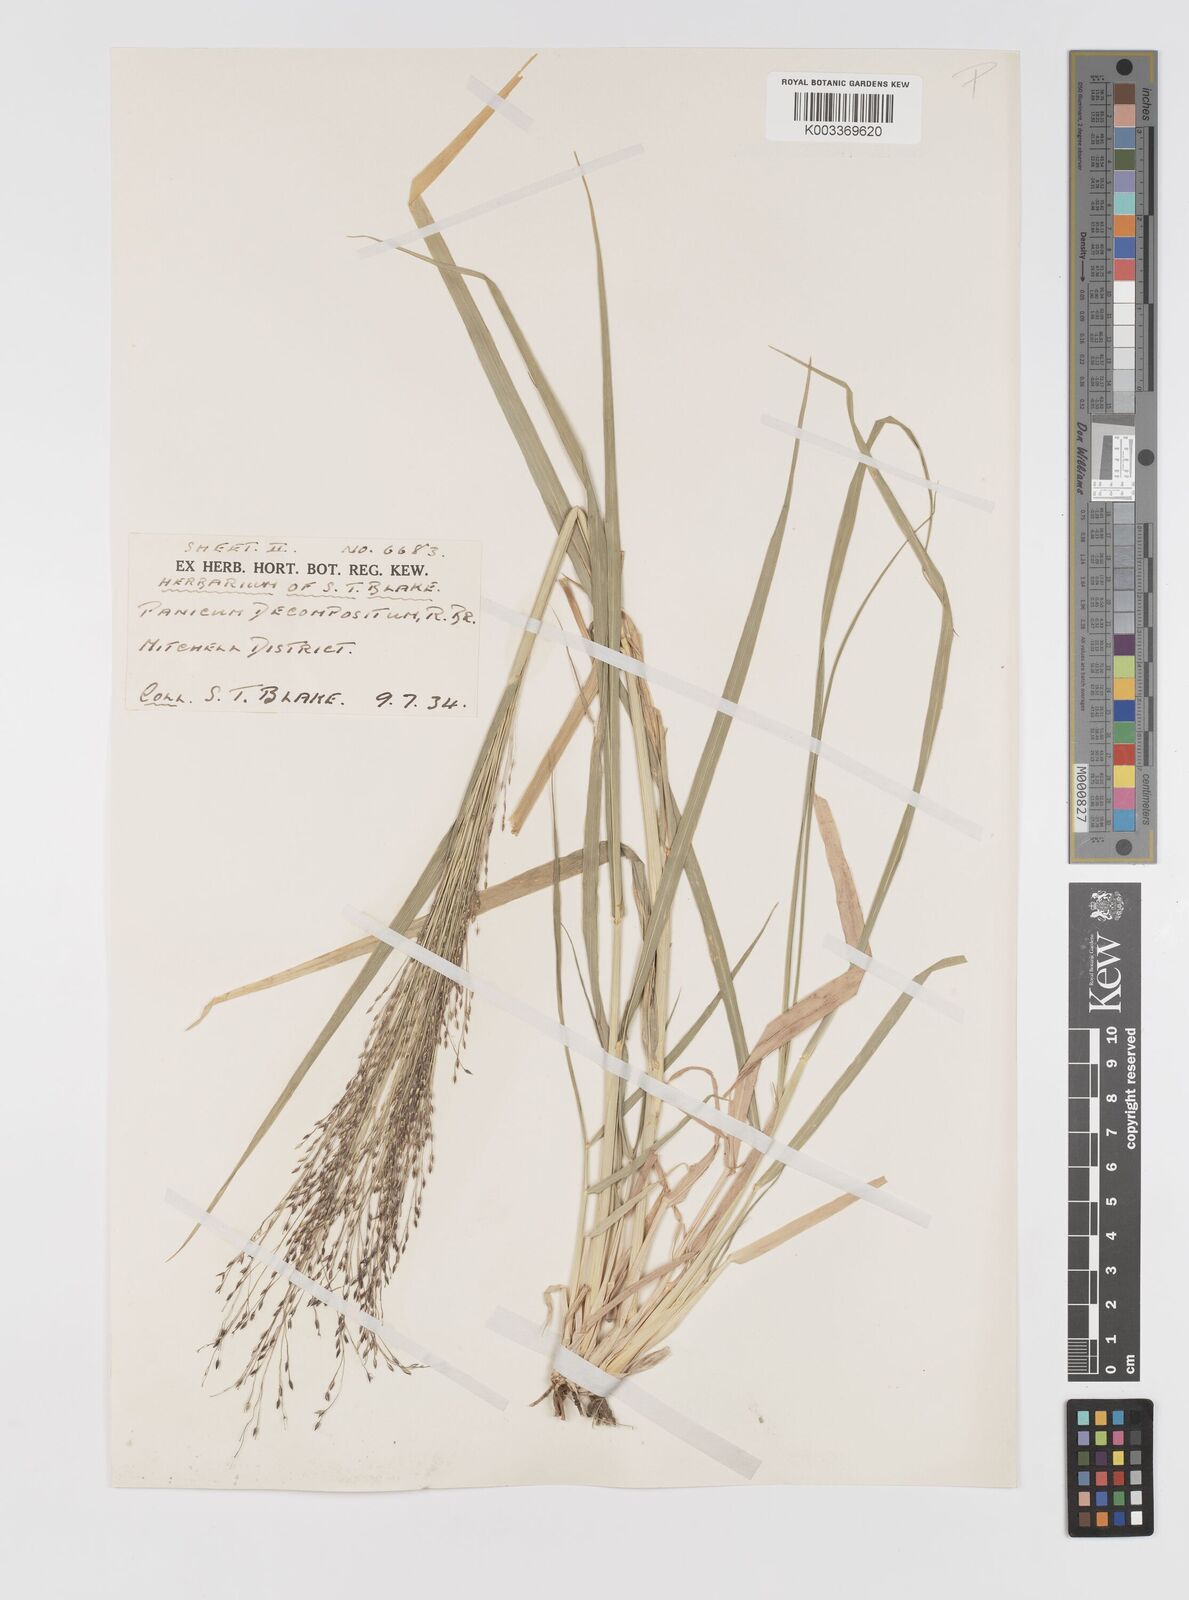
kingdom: Plantae
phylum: Tracheophyta
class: Liliopsida
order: Poales
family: Poaceae
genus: Panicum
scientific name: Panicum decompositum
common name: Australian millet
